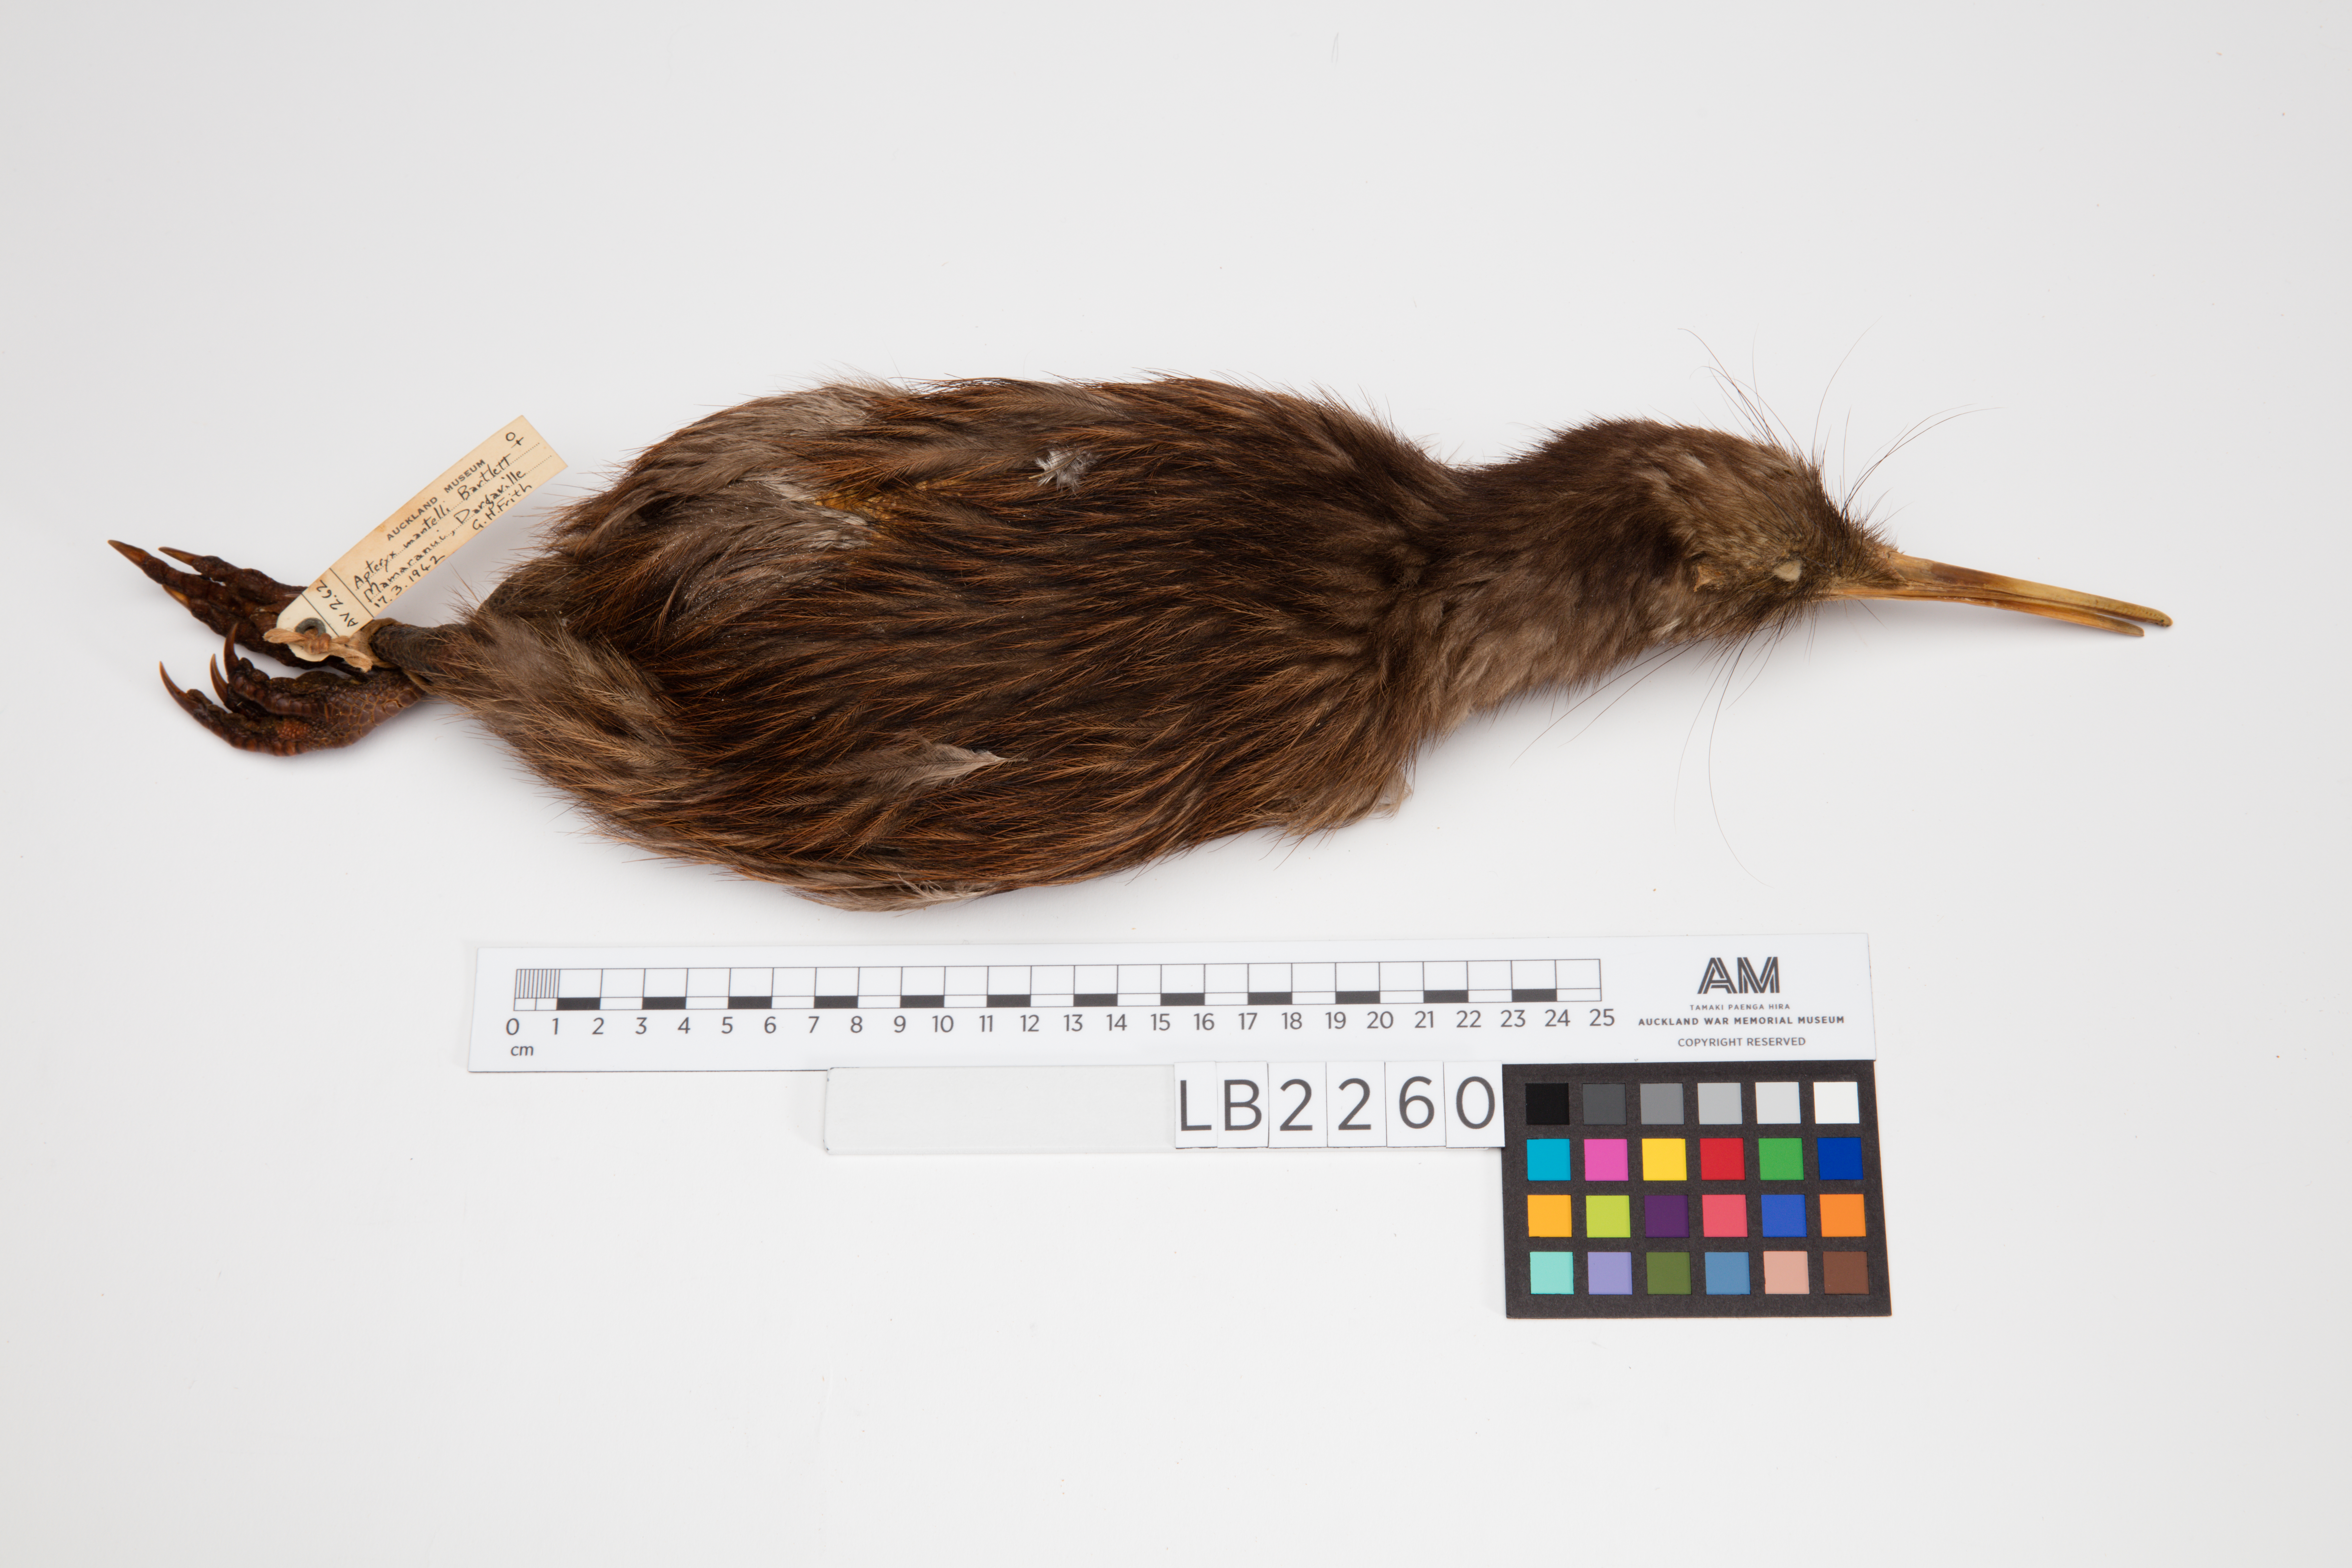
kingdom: Animalia
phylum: Chordata
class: Aves
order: Apterygiformes
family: Apterygidae
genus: Apteryx
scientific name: Apteryx mantelli
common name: North island brown kiwi
